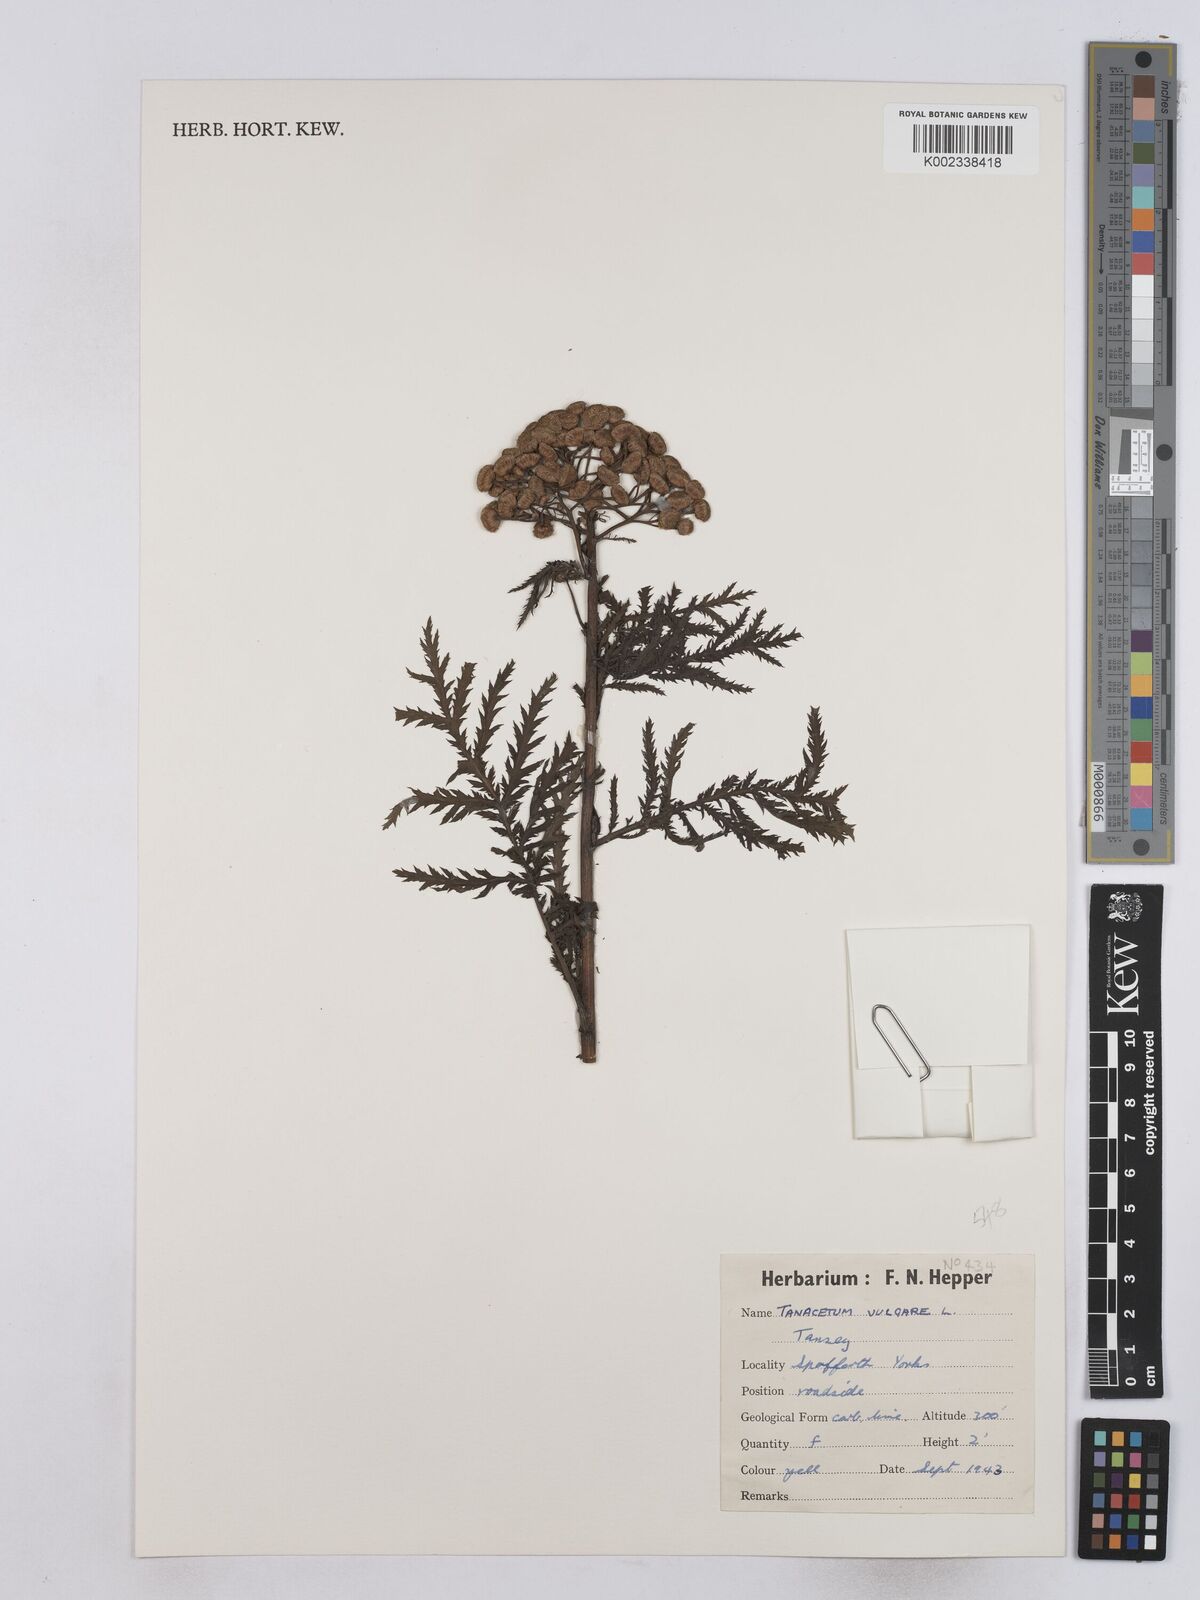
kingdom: Plantae
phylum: Tracheophyta
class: Magnoliopsida
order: Asterales
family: Asteraceae
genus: Tanacetum
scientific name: Tanacetum vulgare
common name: Common tansy
